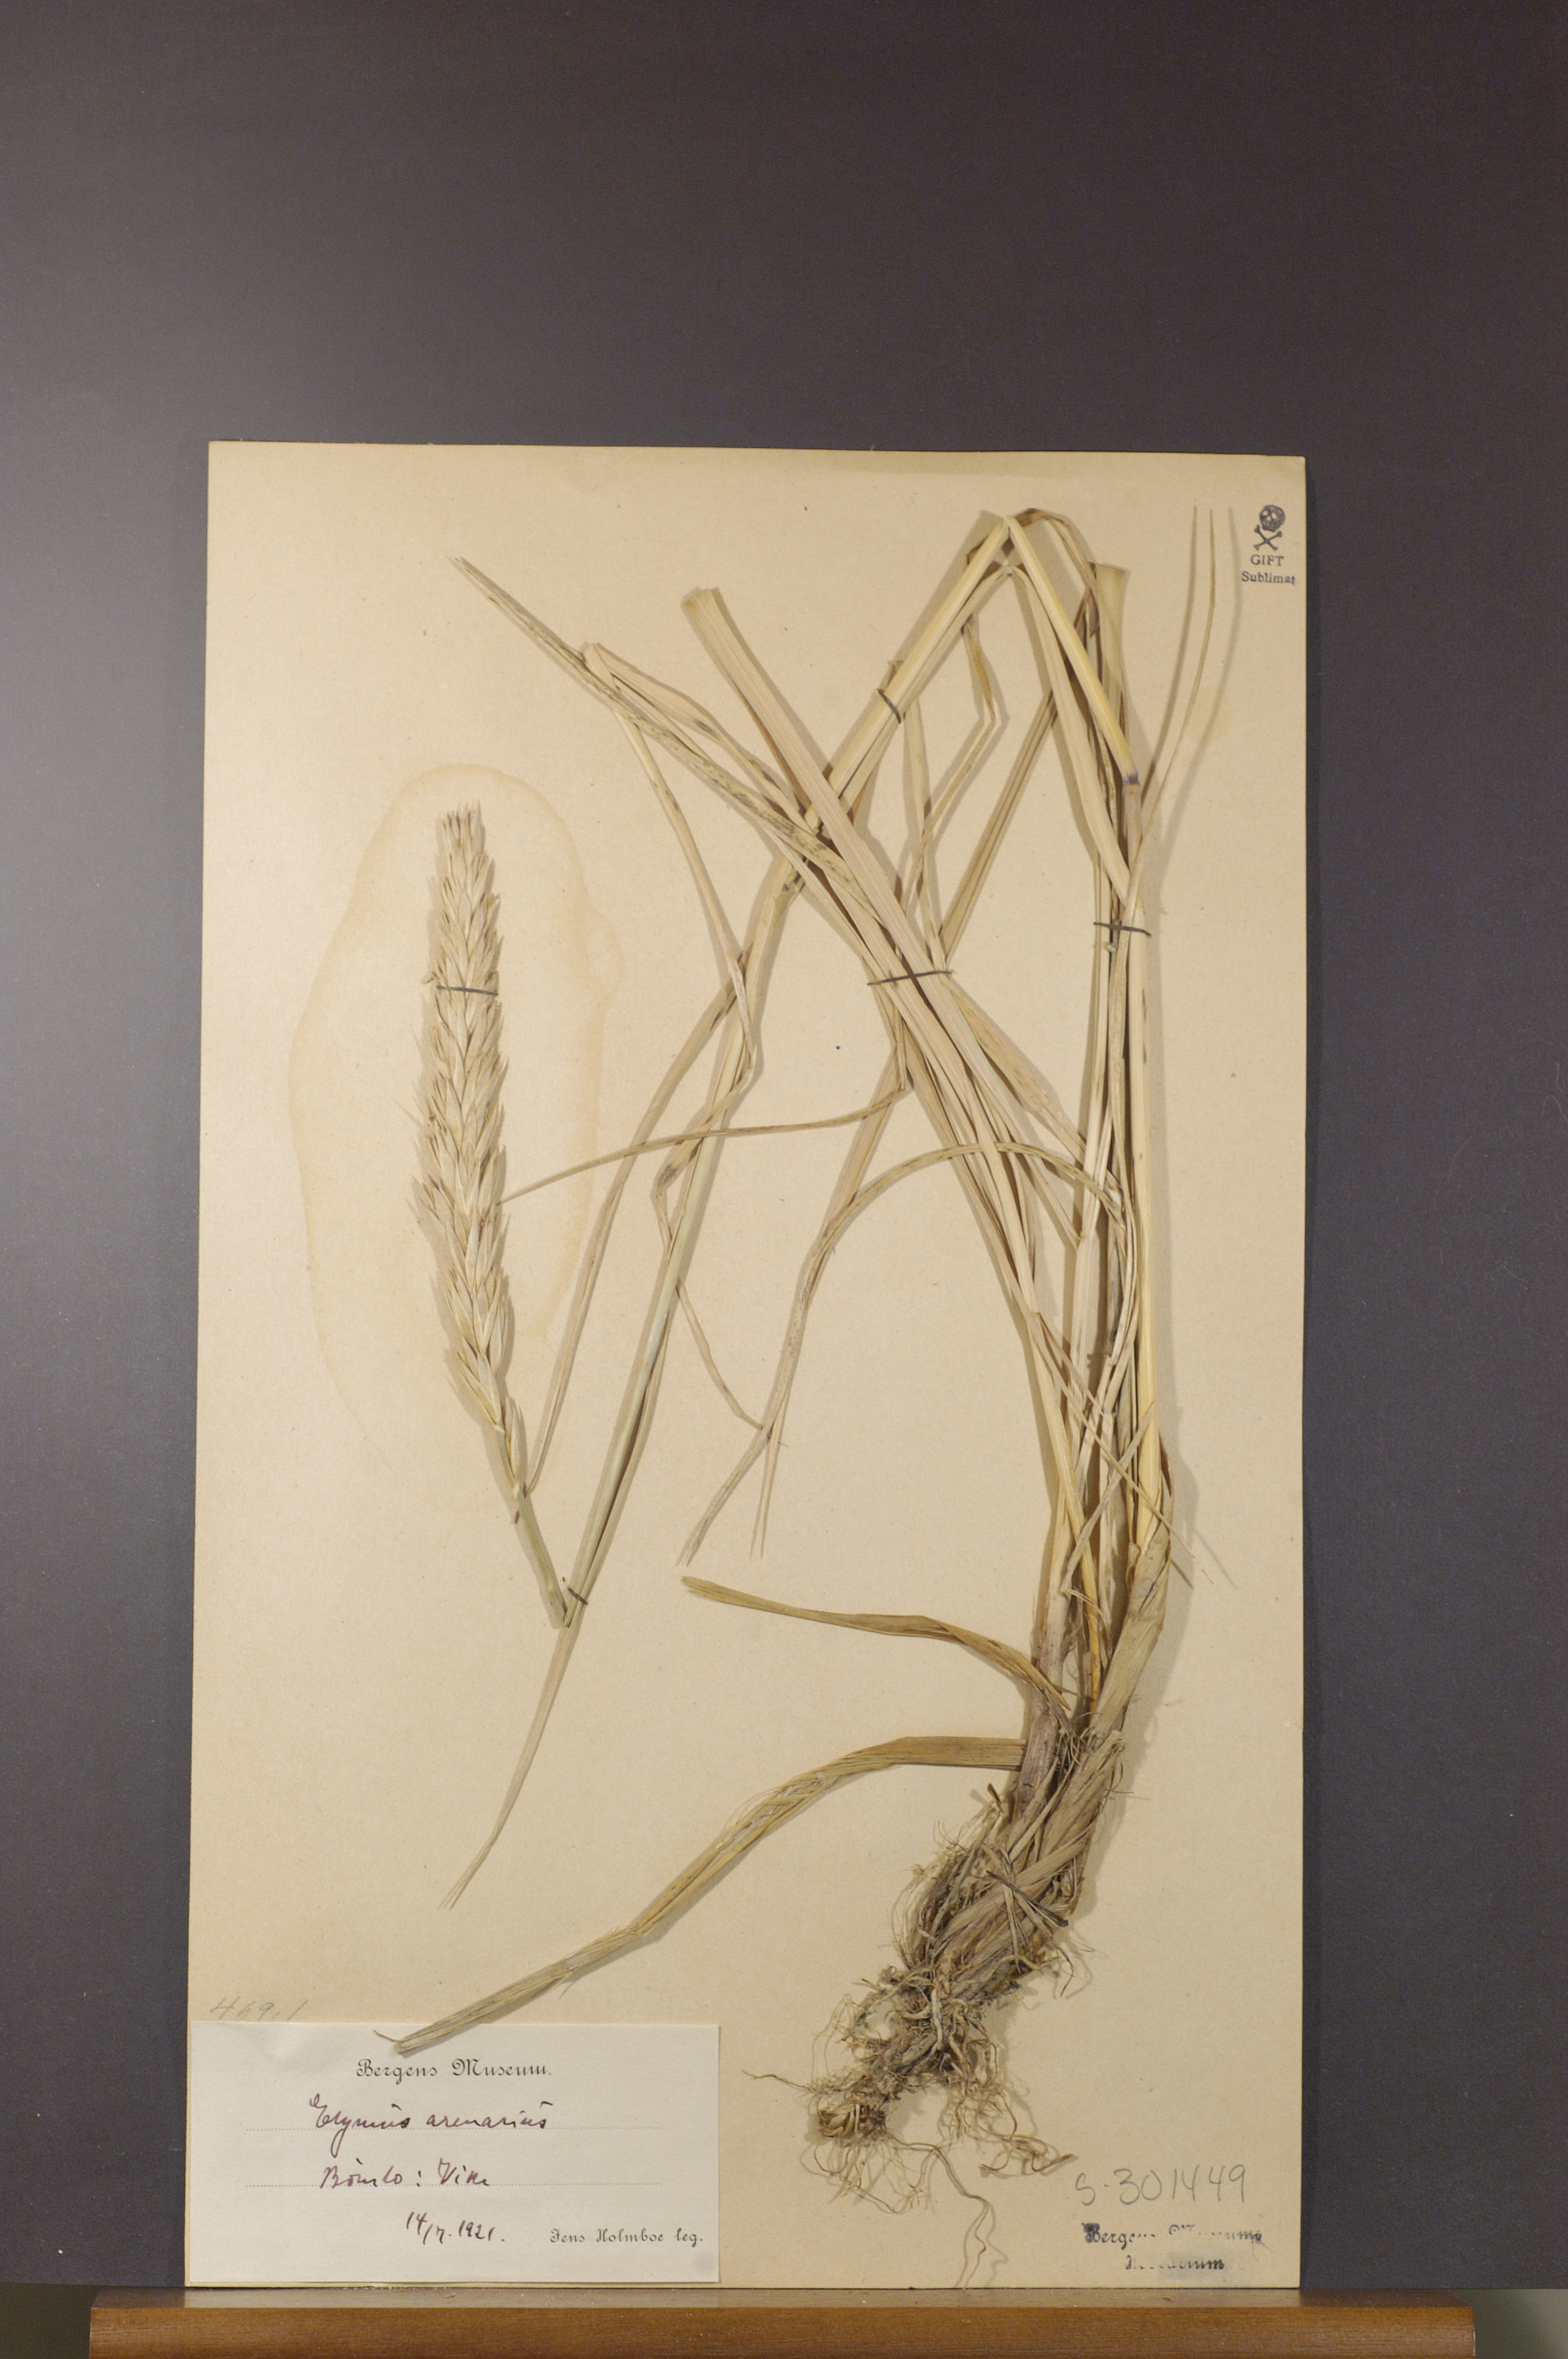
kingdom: Plantae
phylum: Tracheophyta
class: Liliopsida
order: Poales
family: Poaceae
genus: Leymus
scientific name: Leymus arenarius
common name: Lyme-grass
